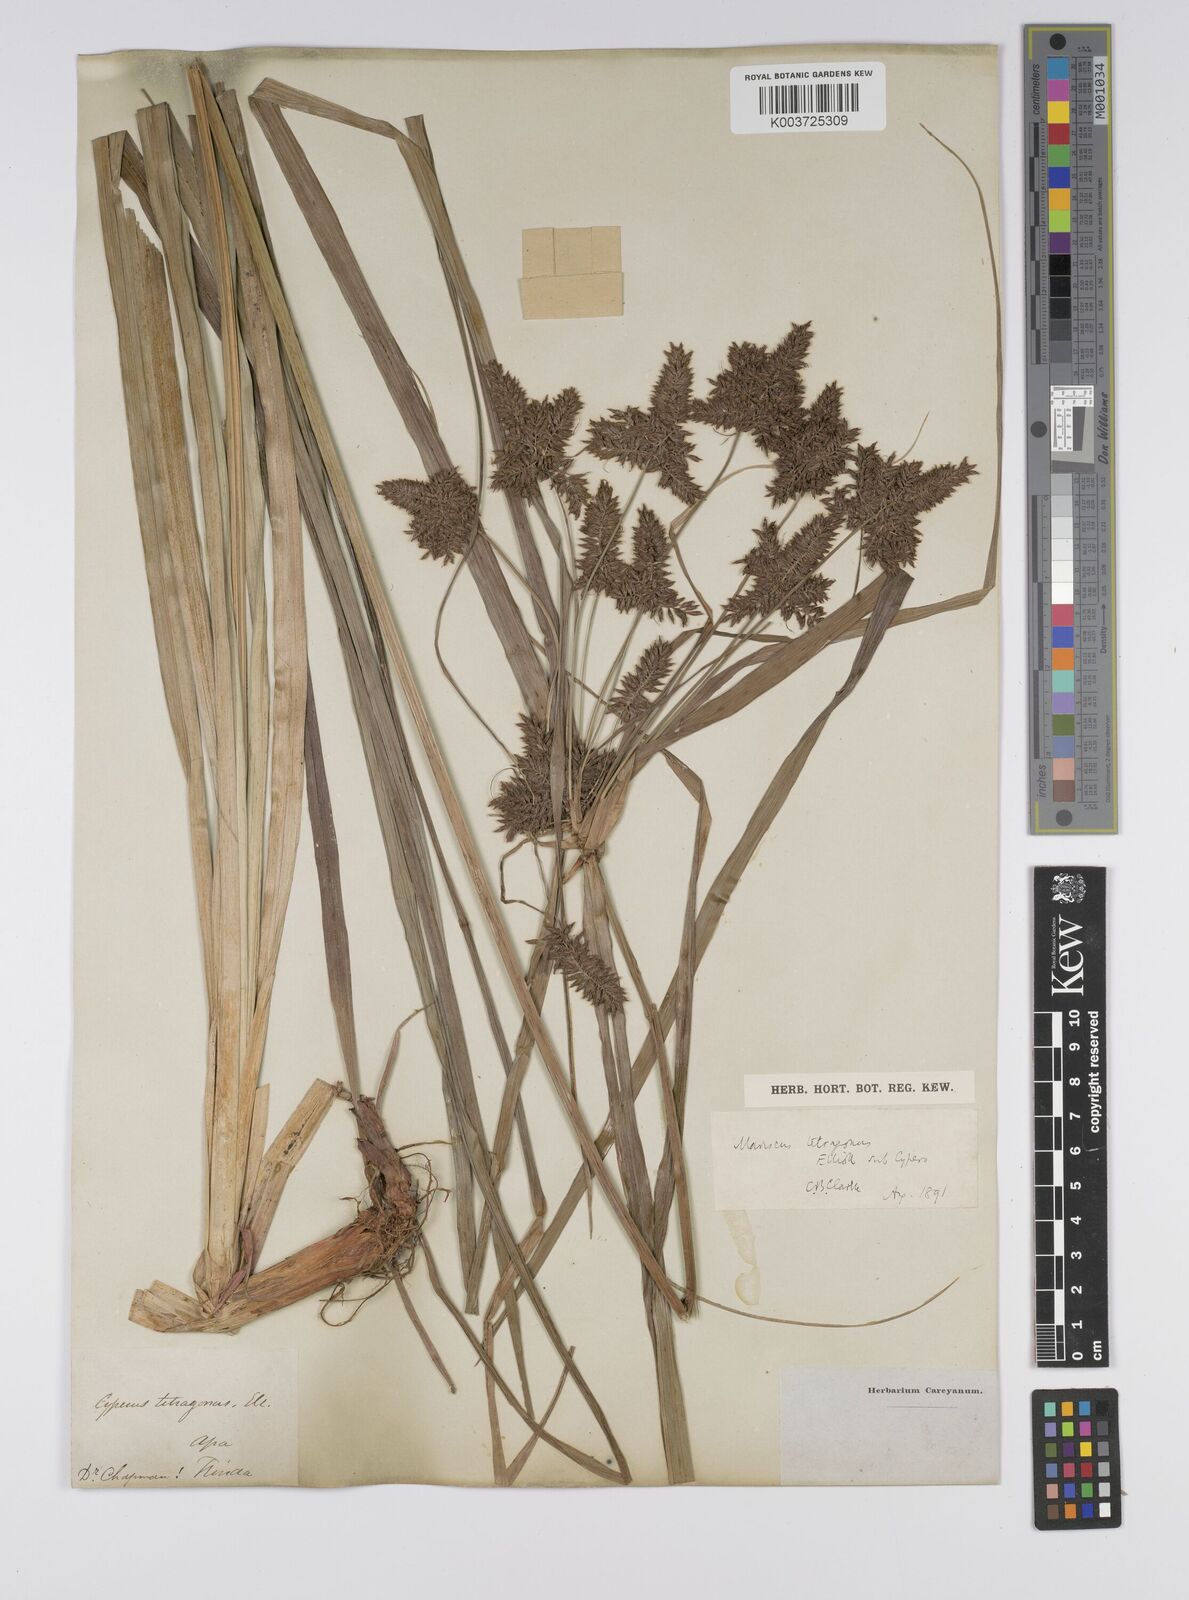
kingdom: Plantae
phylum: Tracheophyta
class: Liliopsida
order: Poales
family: Cyperaceae
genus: Cyperus
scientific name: Cyperus tetragonus
